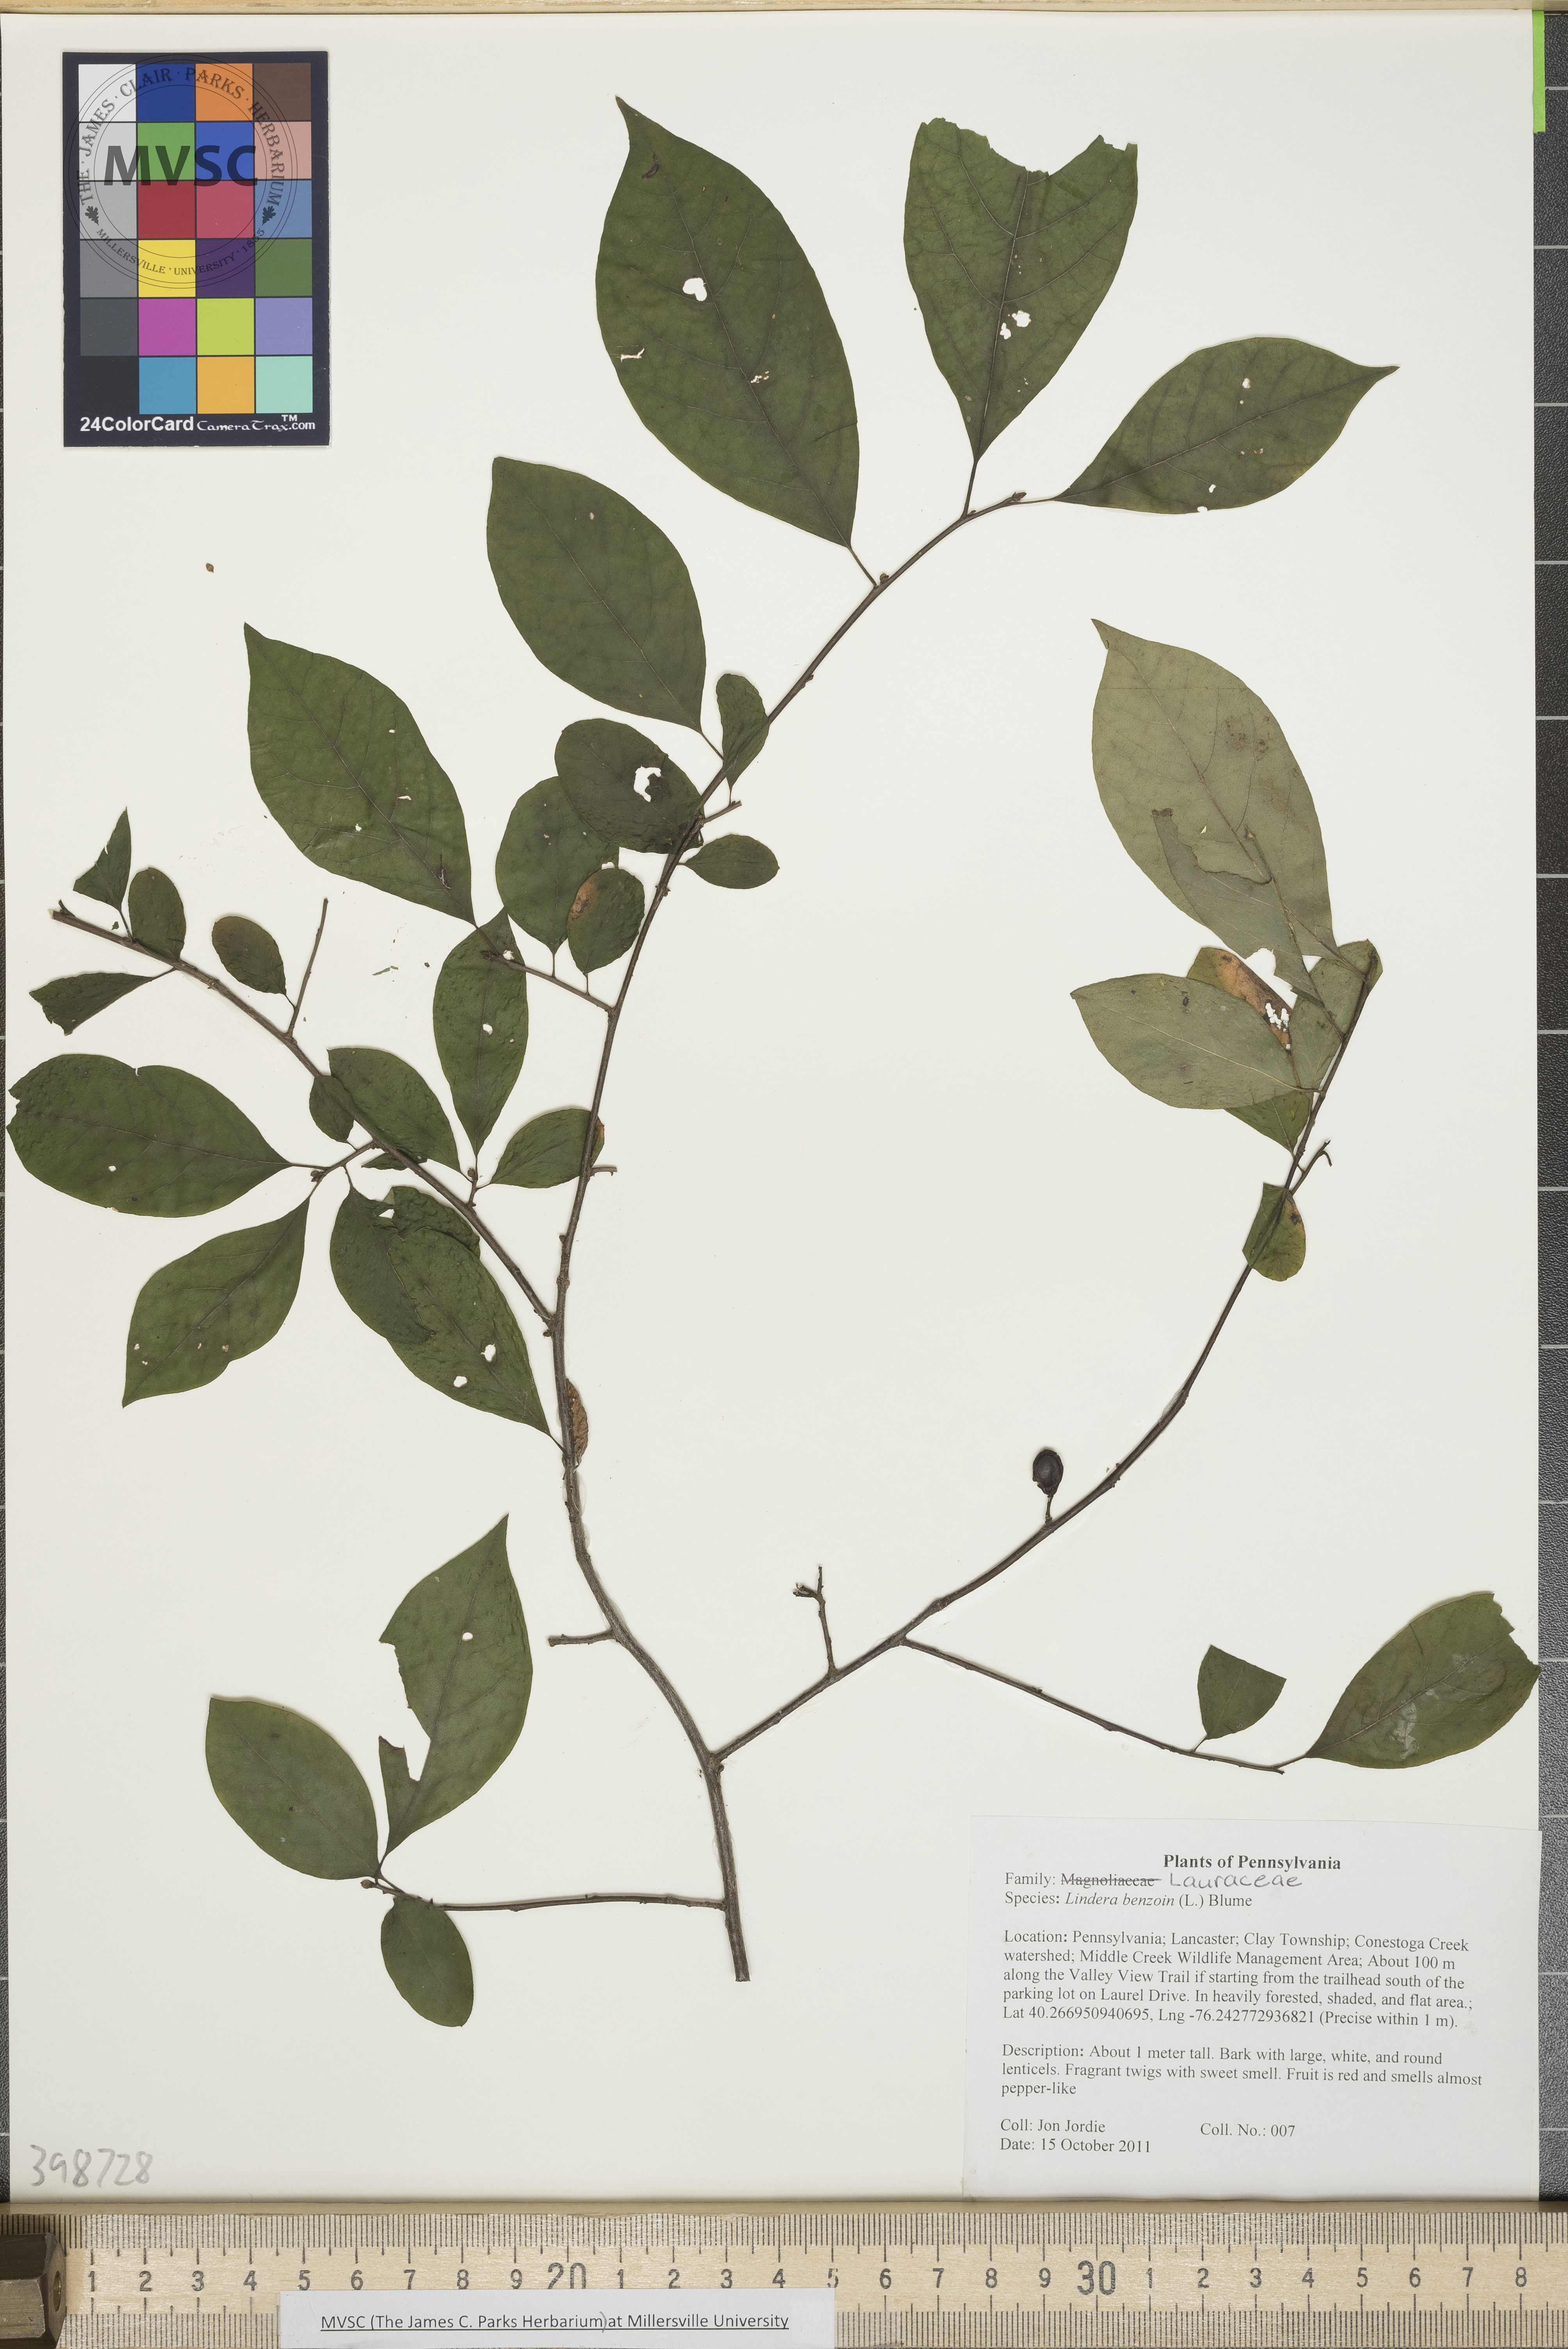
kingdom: Plantae
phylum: Tracheophyta
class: Magnoliopsida
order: Laurales
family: Lauraceae
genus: Lindera
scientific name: Lindera benzoin
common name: Spicebush
